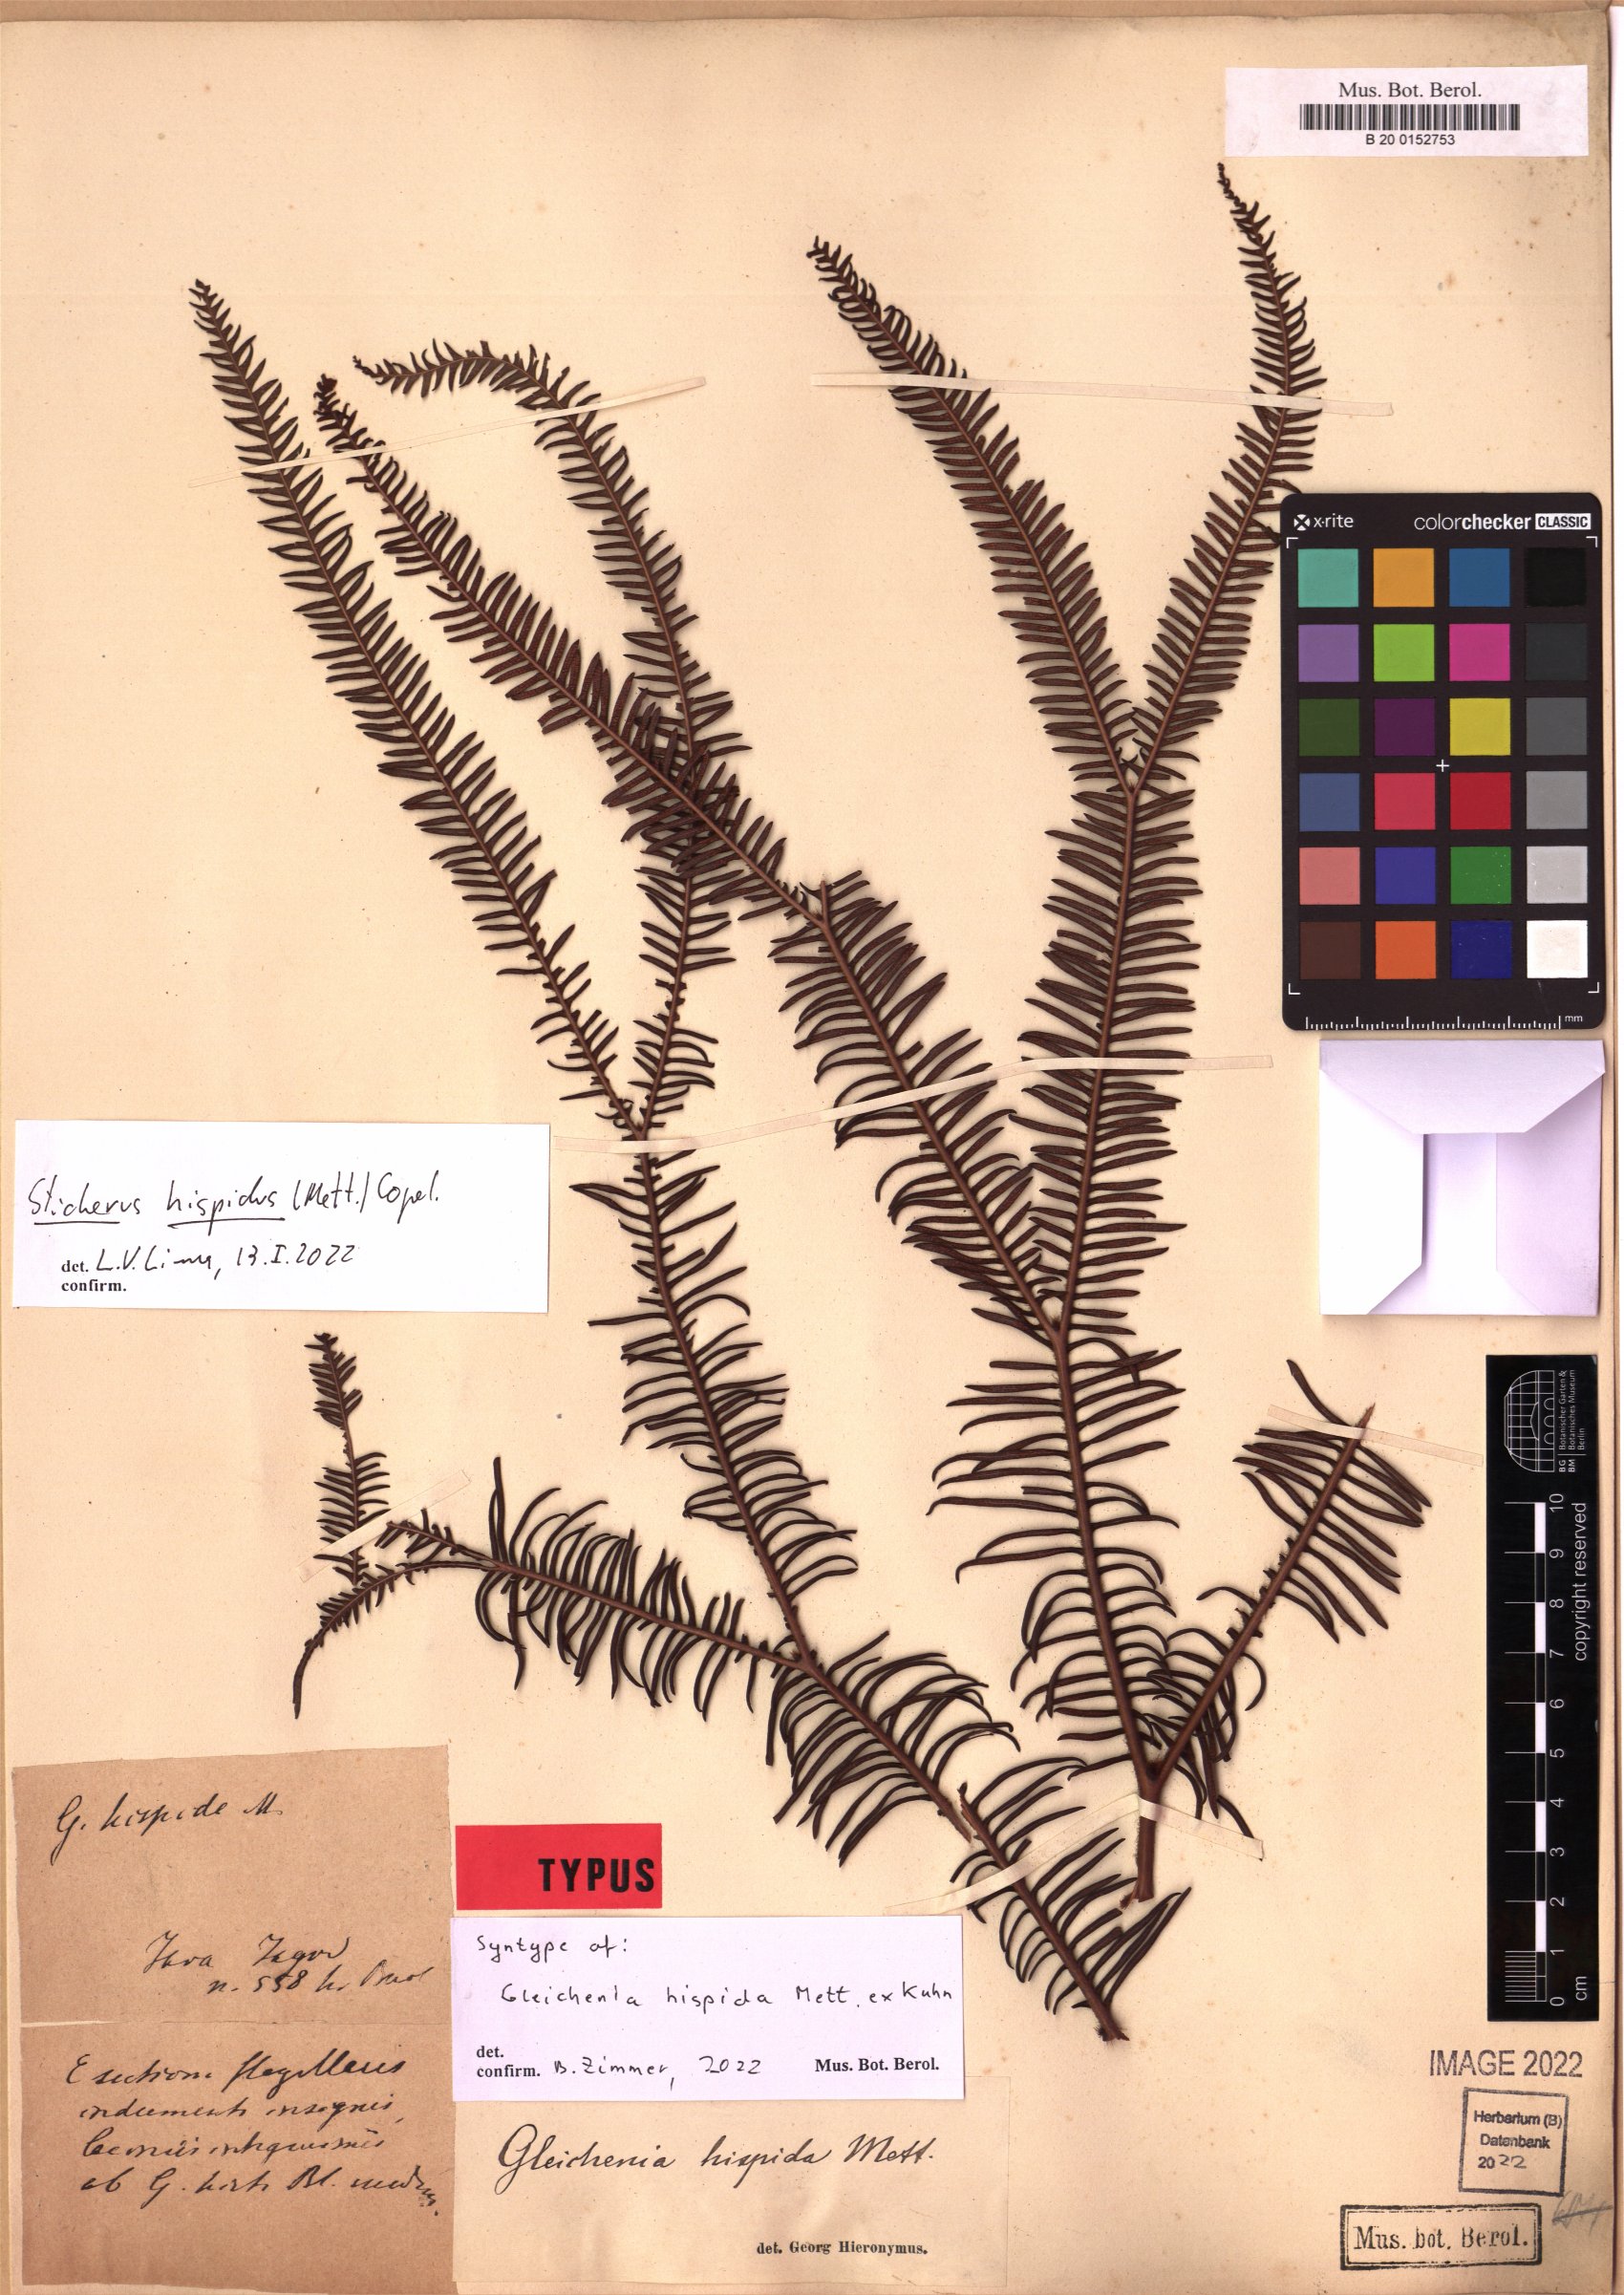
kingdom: Plantae
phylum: Tracheophyta
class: Polypodiopsida
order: Gleicheniales
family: Gleicheniaceae
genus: Sticherus
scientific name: Sticherus hispidus
